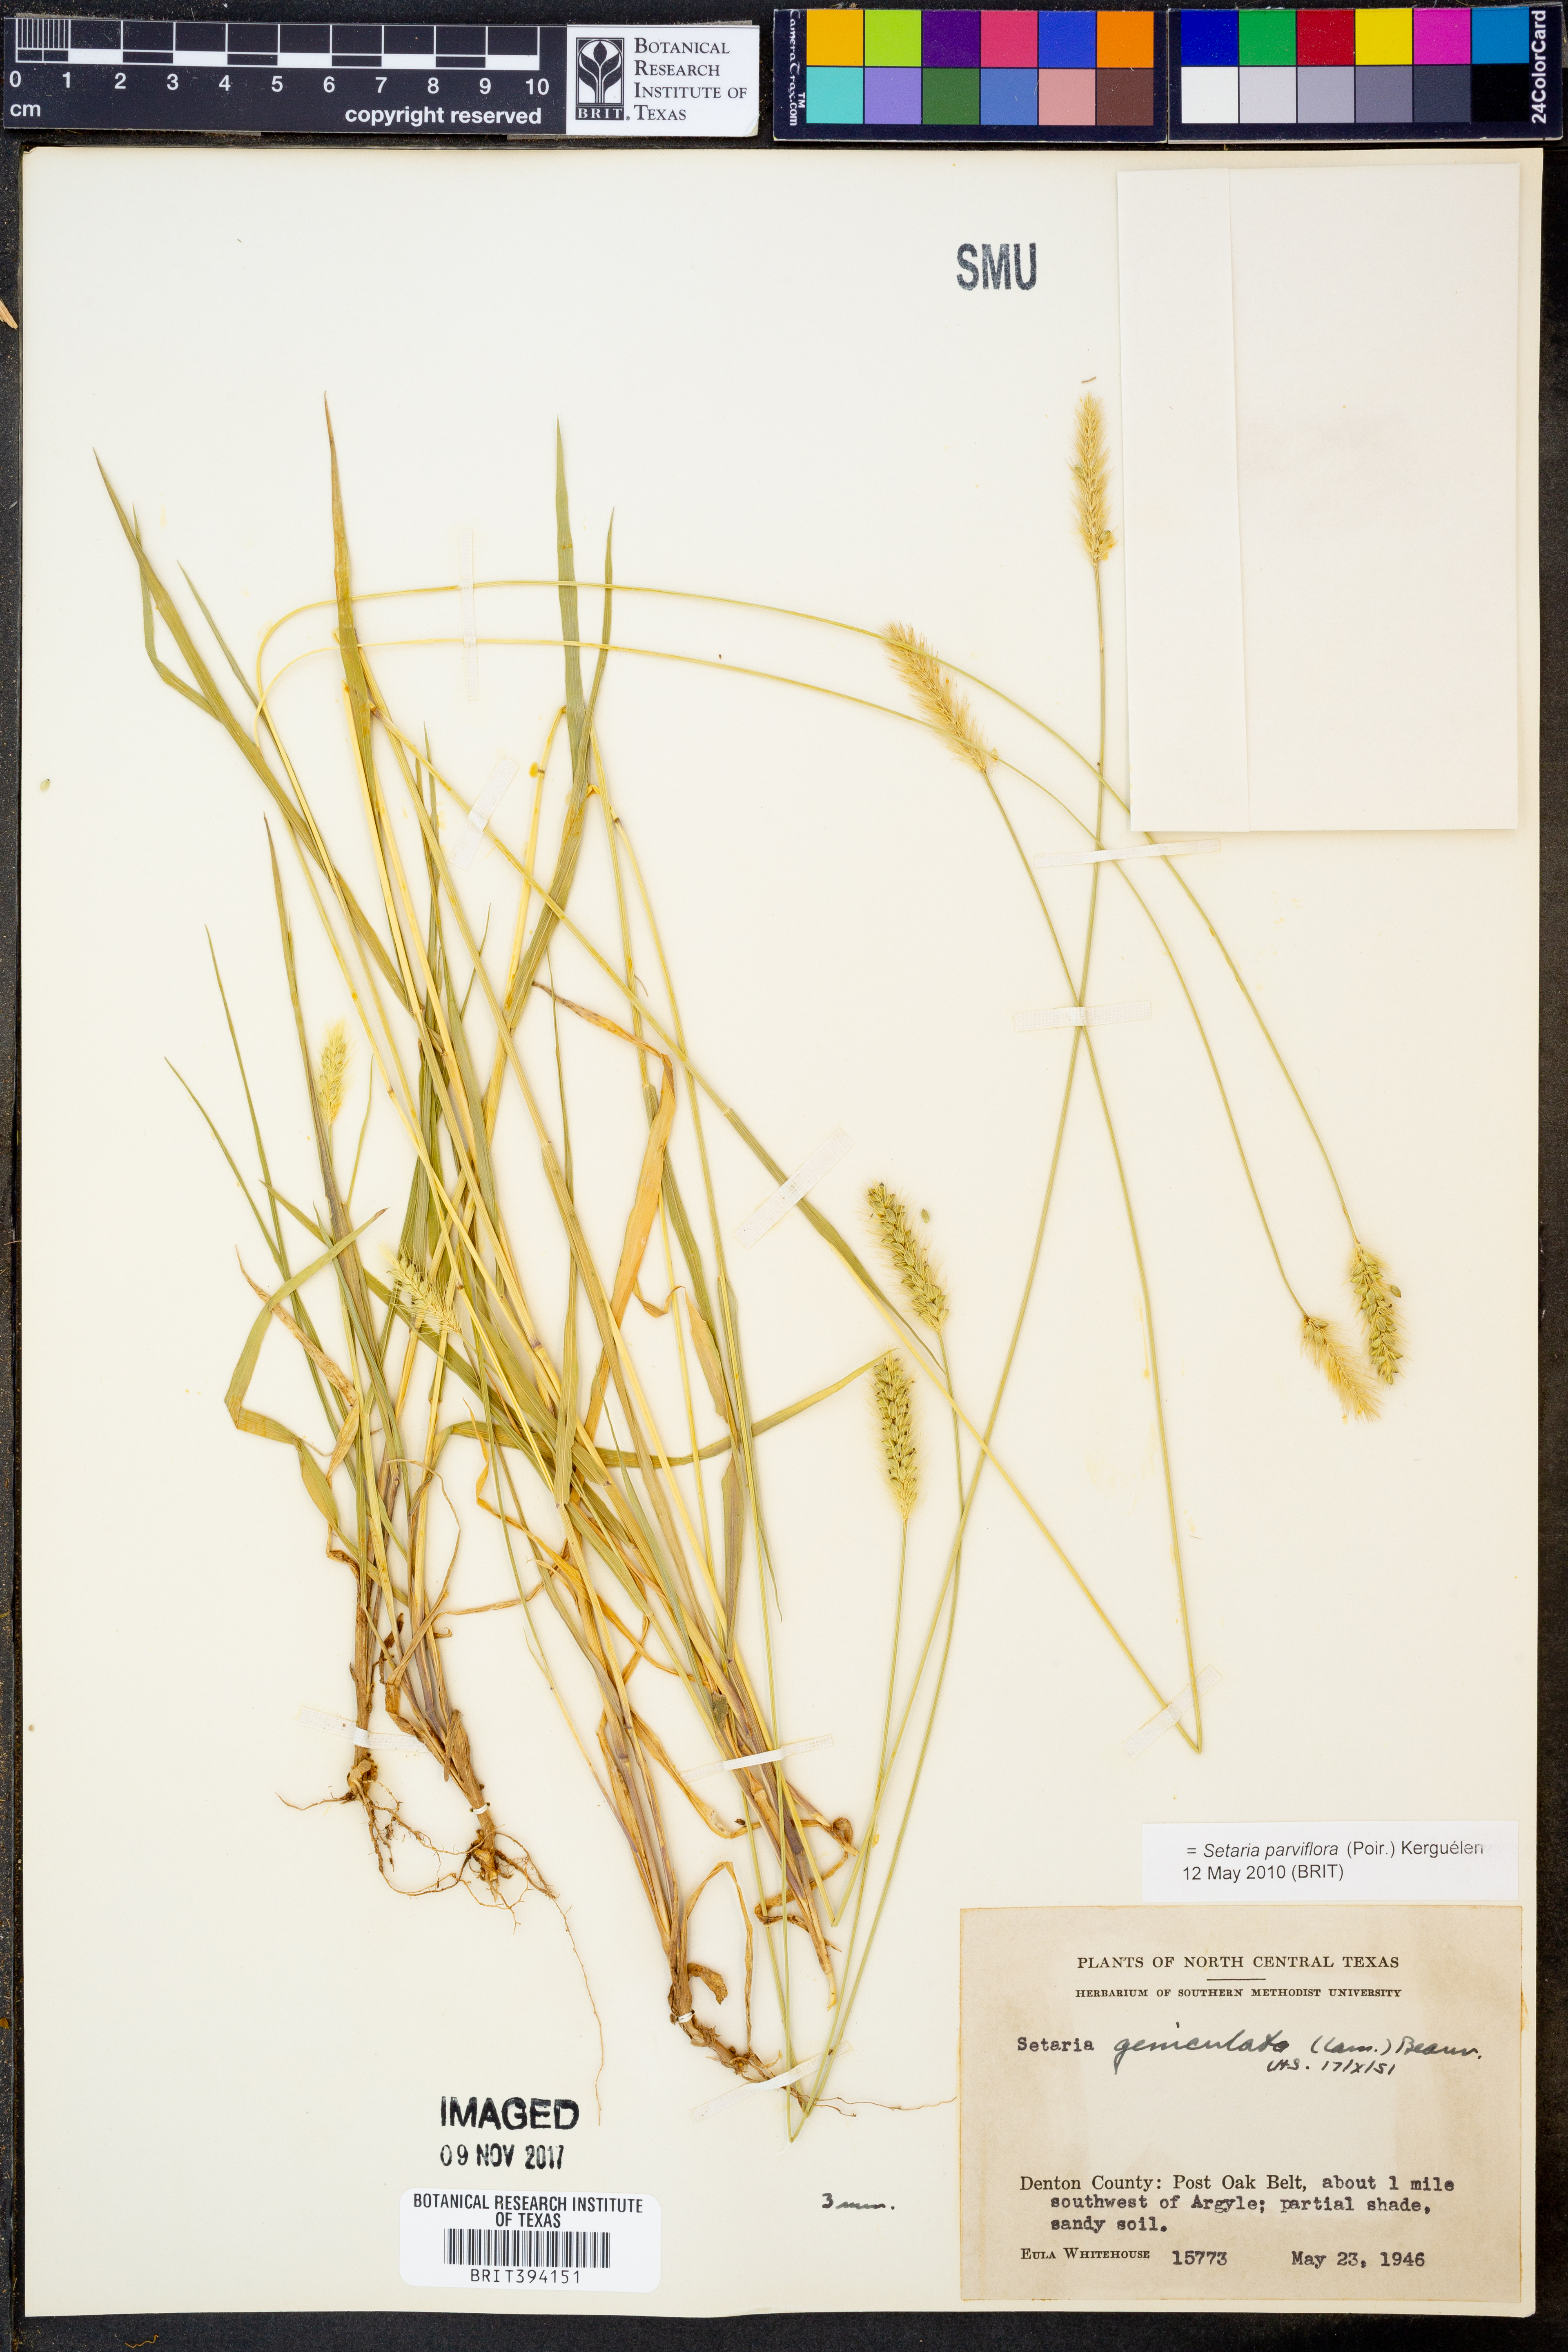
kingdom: Plantae
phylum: Tracheophyta
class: Liliopsida
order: Poales
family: Poaceae
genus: Setaria
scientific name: Setaria parviflora
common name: Knotroot bristle-grass
